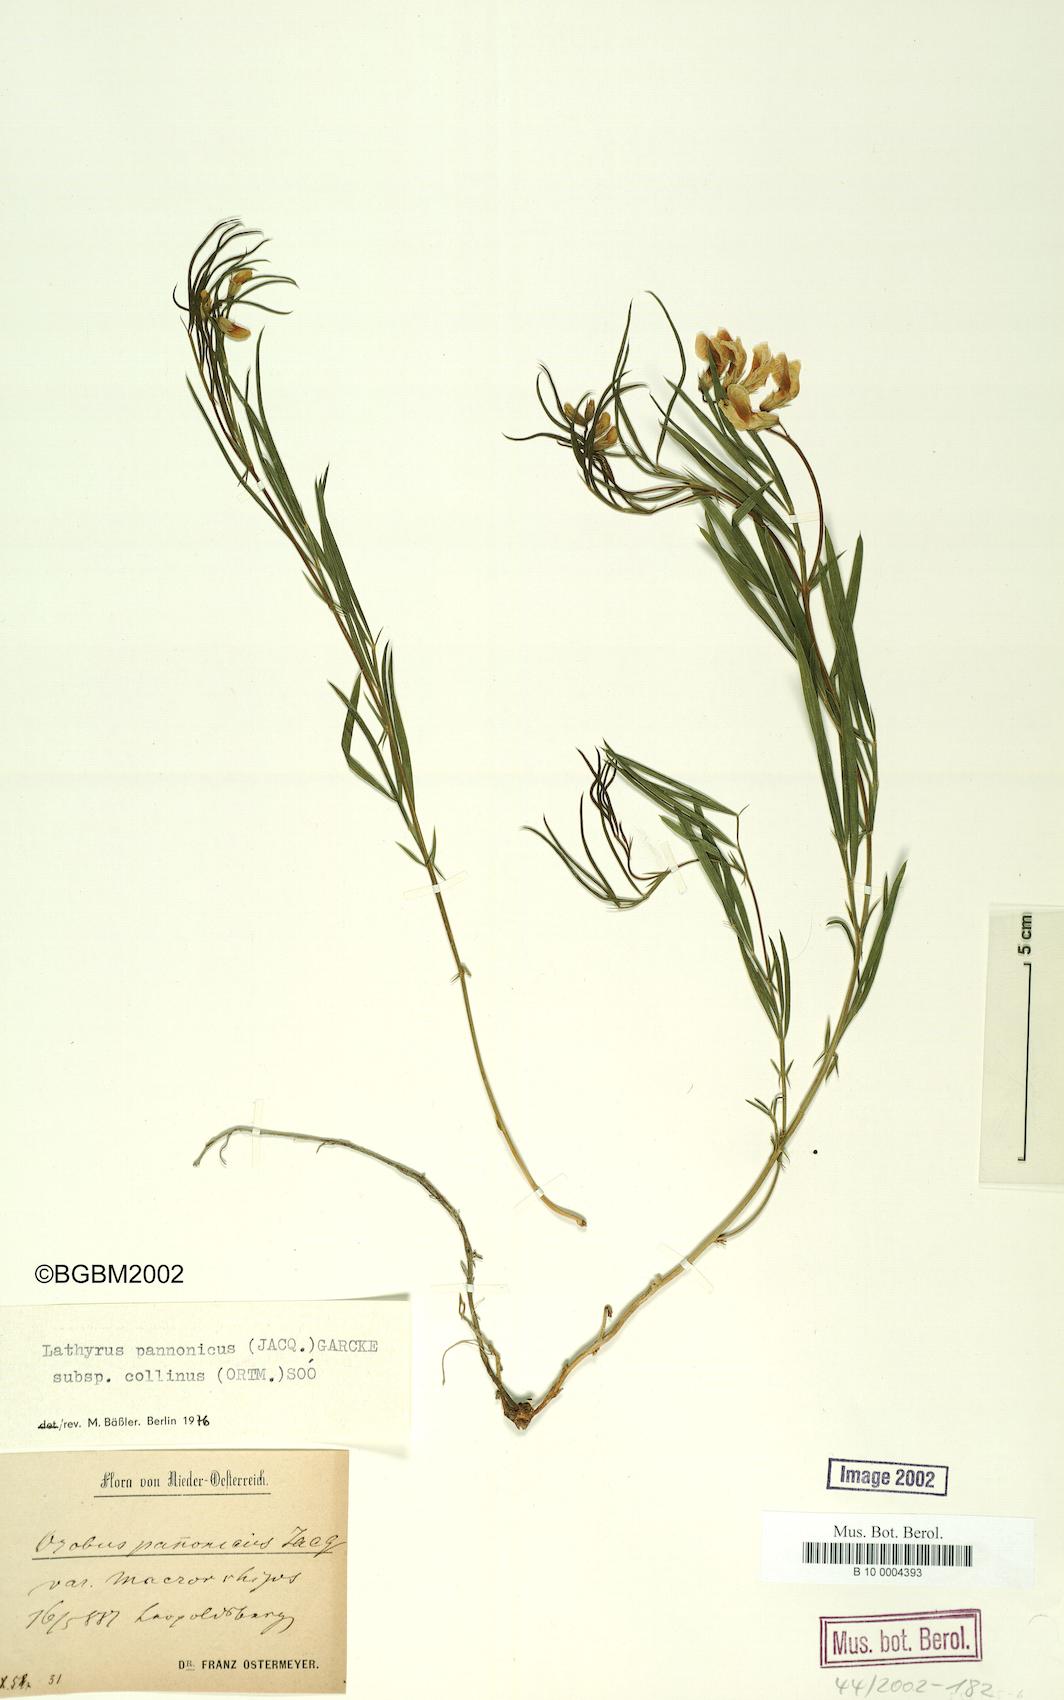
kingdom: Plantae
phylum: Tracheophyta
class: Magnoliopsida
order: Fabales
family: Fabaceae
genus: Lathyrus
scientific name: Lathyrus pannonicus
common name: Pea
